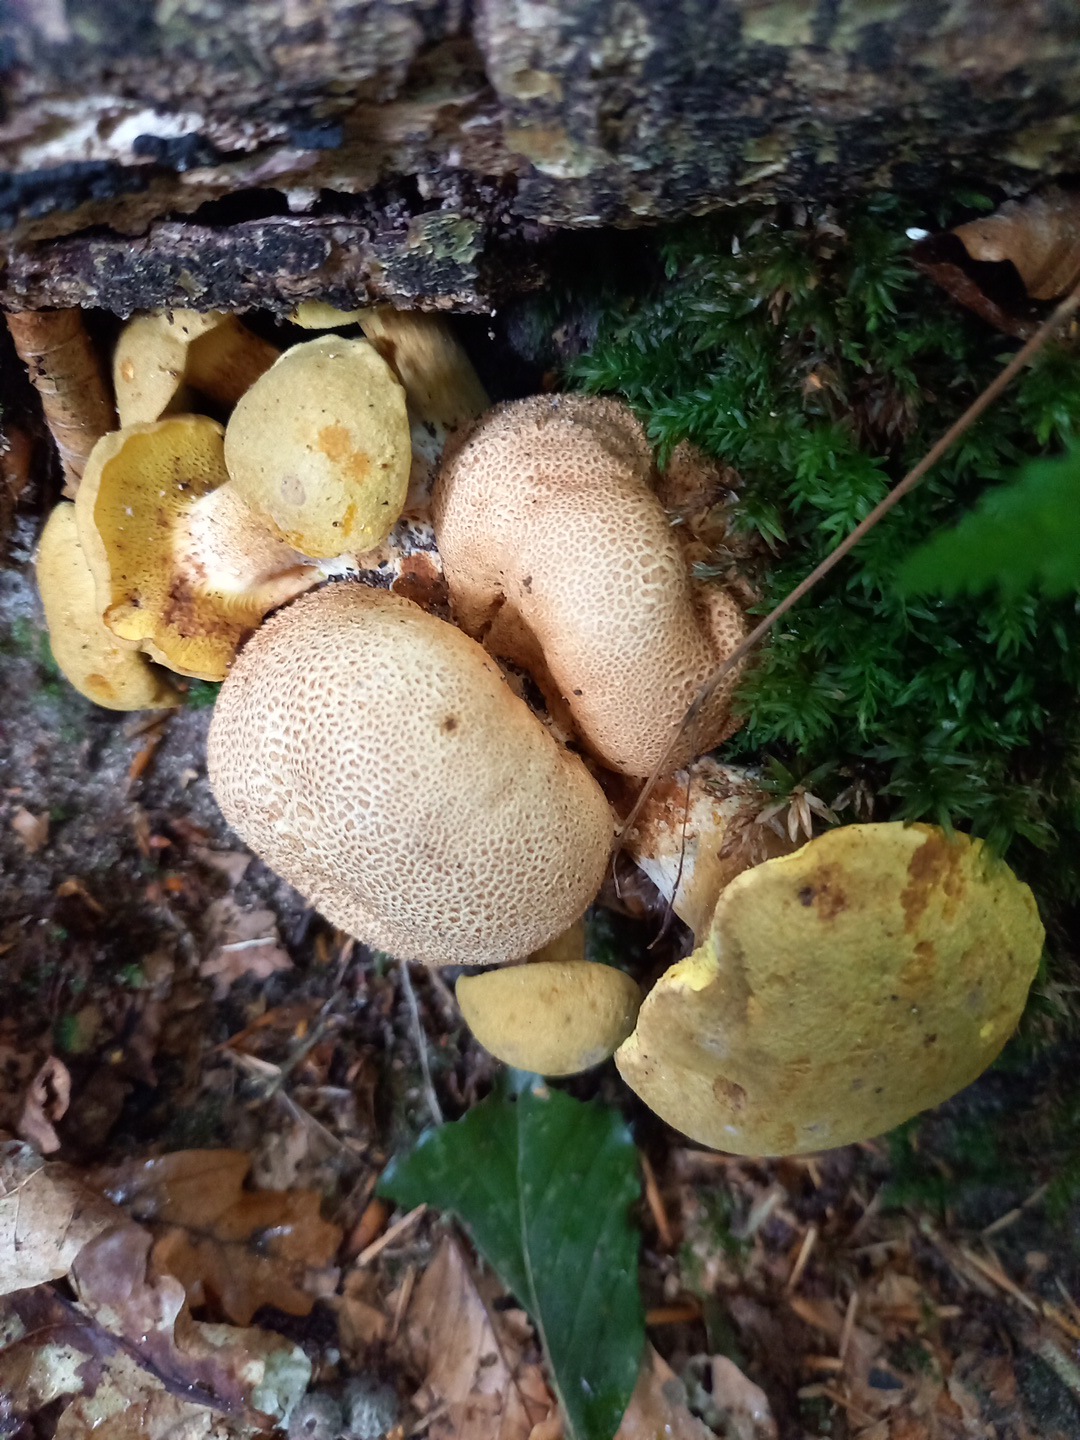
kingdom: Fungi
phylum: Basidiomycota
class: Agaricomycetes
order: Boletales
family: Boletaceae
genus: Pseudoboletus
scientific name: Pseudoboletus parasiticus
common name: snyltende rørhat
